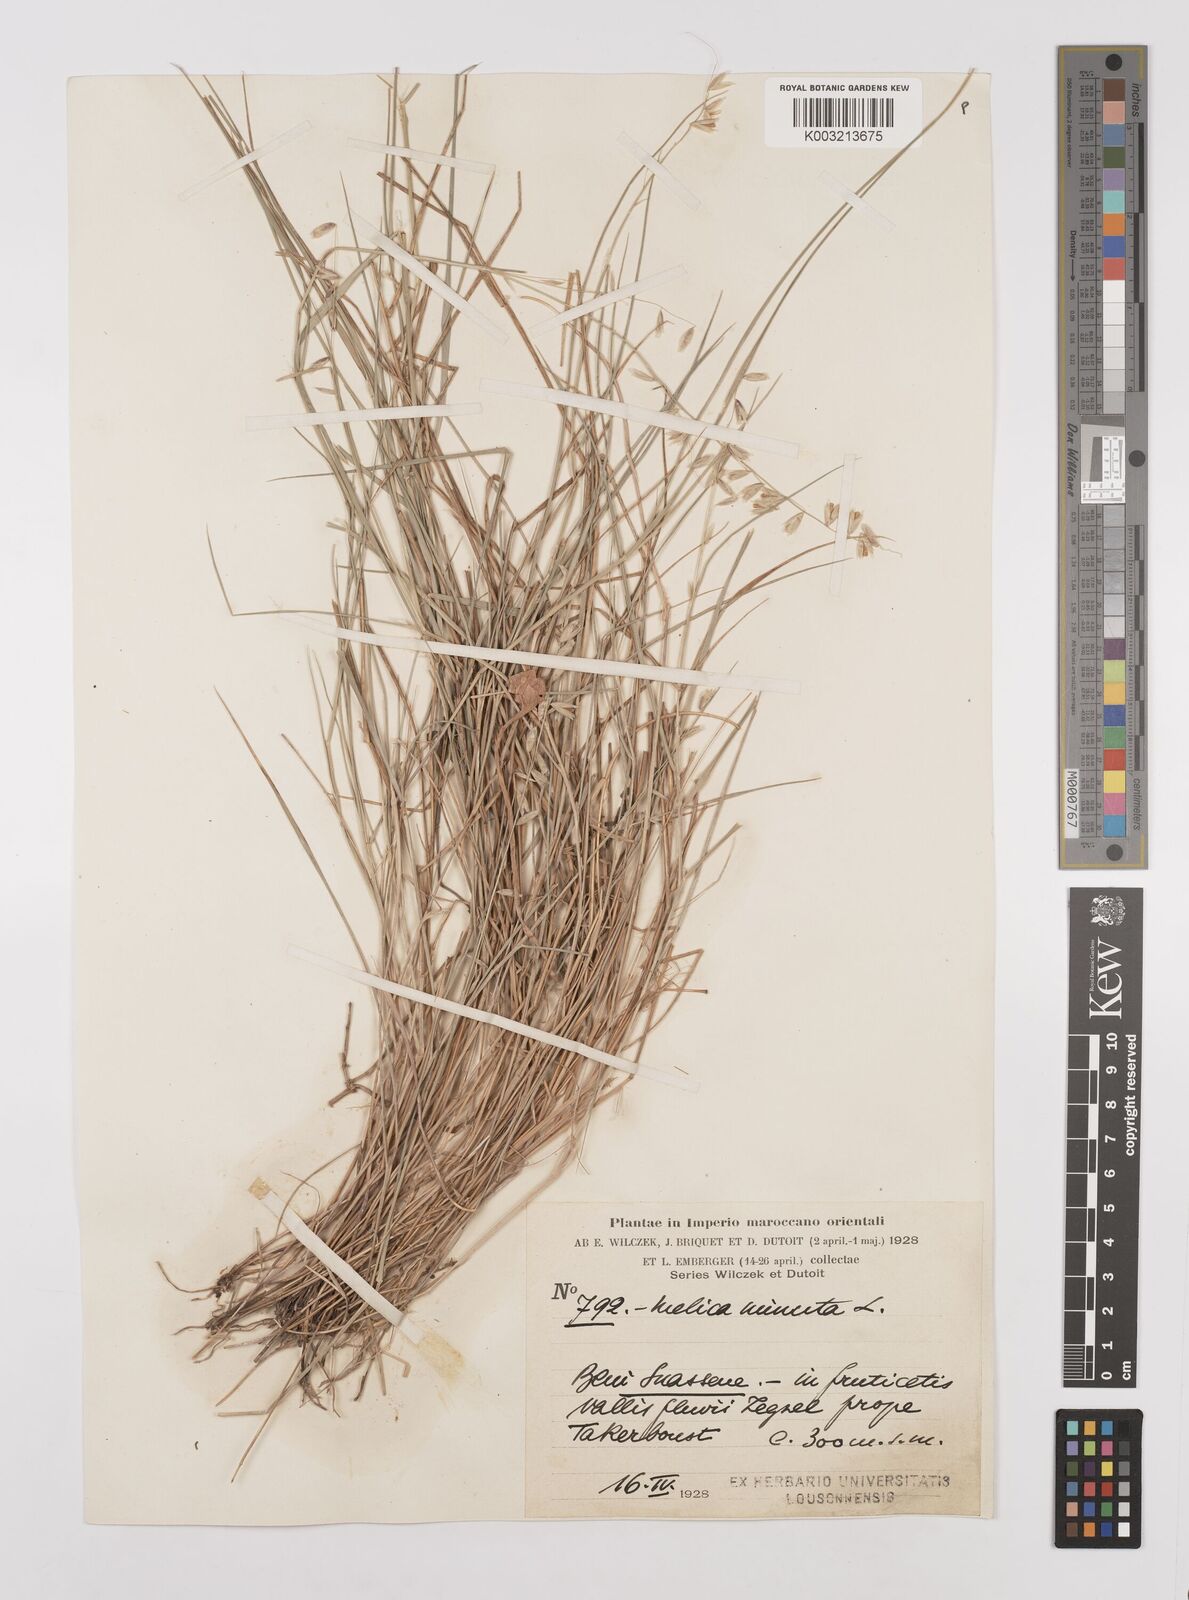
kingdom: Plantae
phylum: Tracheophyta
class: Liliopsida
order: Poales
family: Poaceae
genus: Melica
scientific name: Melica minuta
